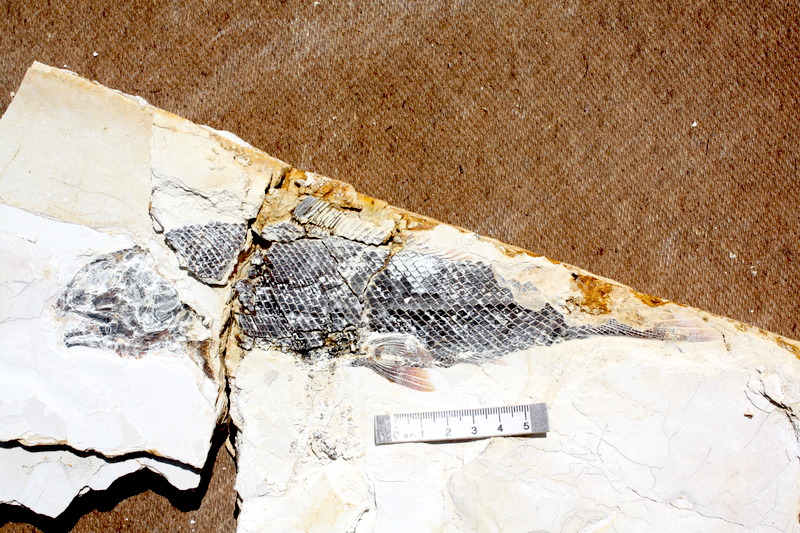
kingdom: Animalia
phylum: Chordata
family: Ophiopsiellidae
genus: Ophiopsiella
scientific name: Ophiopsiella procera
